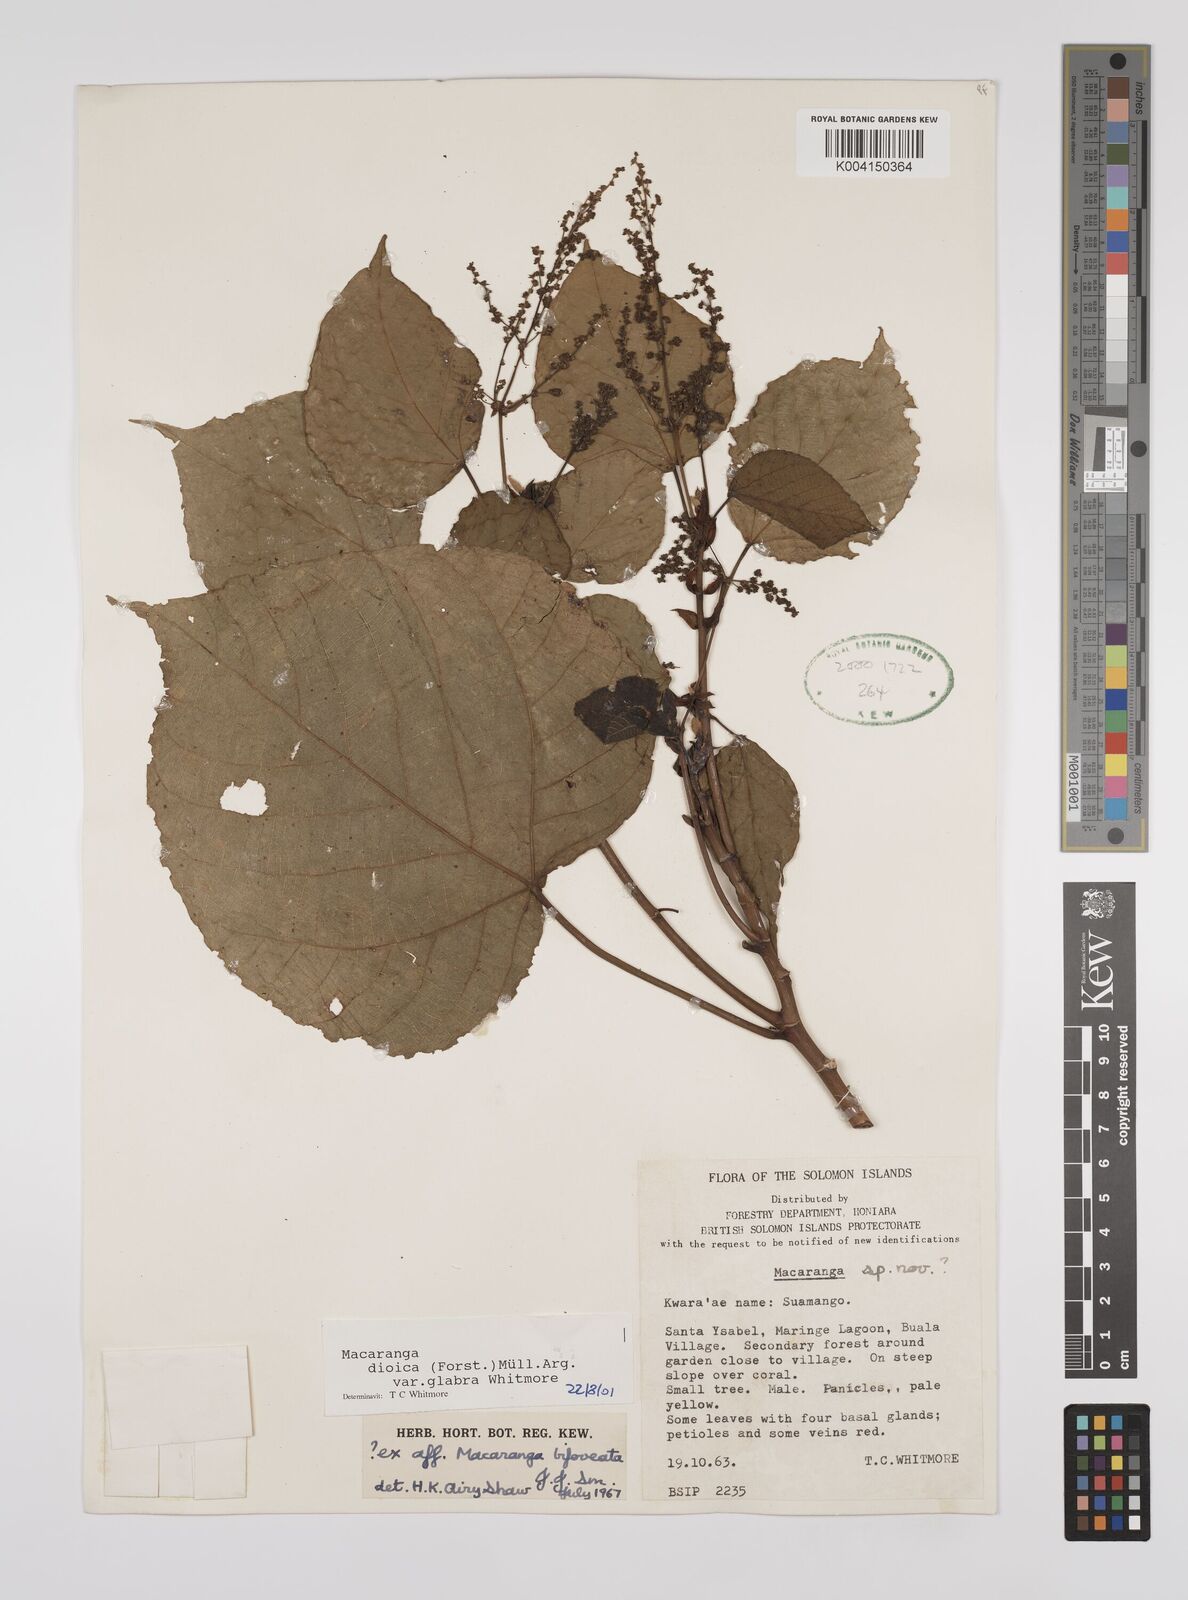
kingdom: Plantae
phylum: Tracheophyta
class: Magnoliopsida
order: Malpighiales
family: Euphorbiaceae
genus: Macaranga
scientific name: Macaranga dioica
